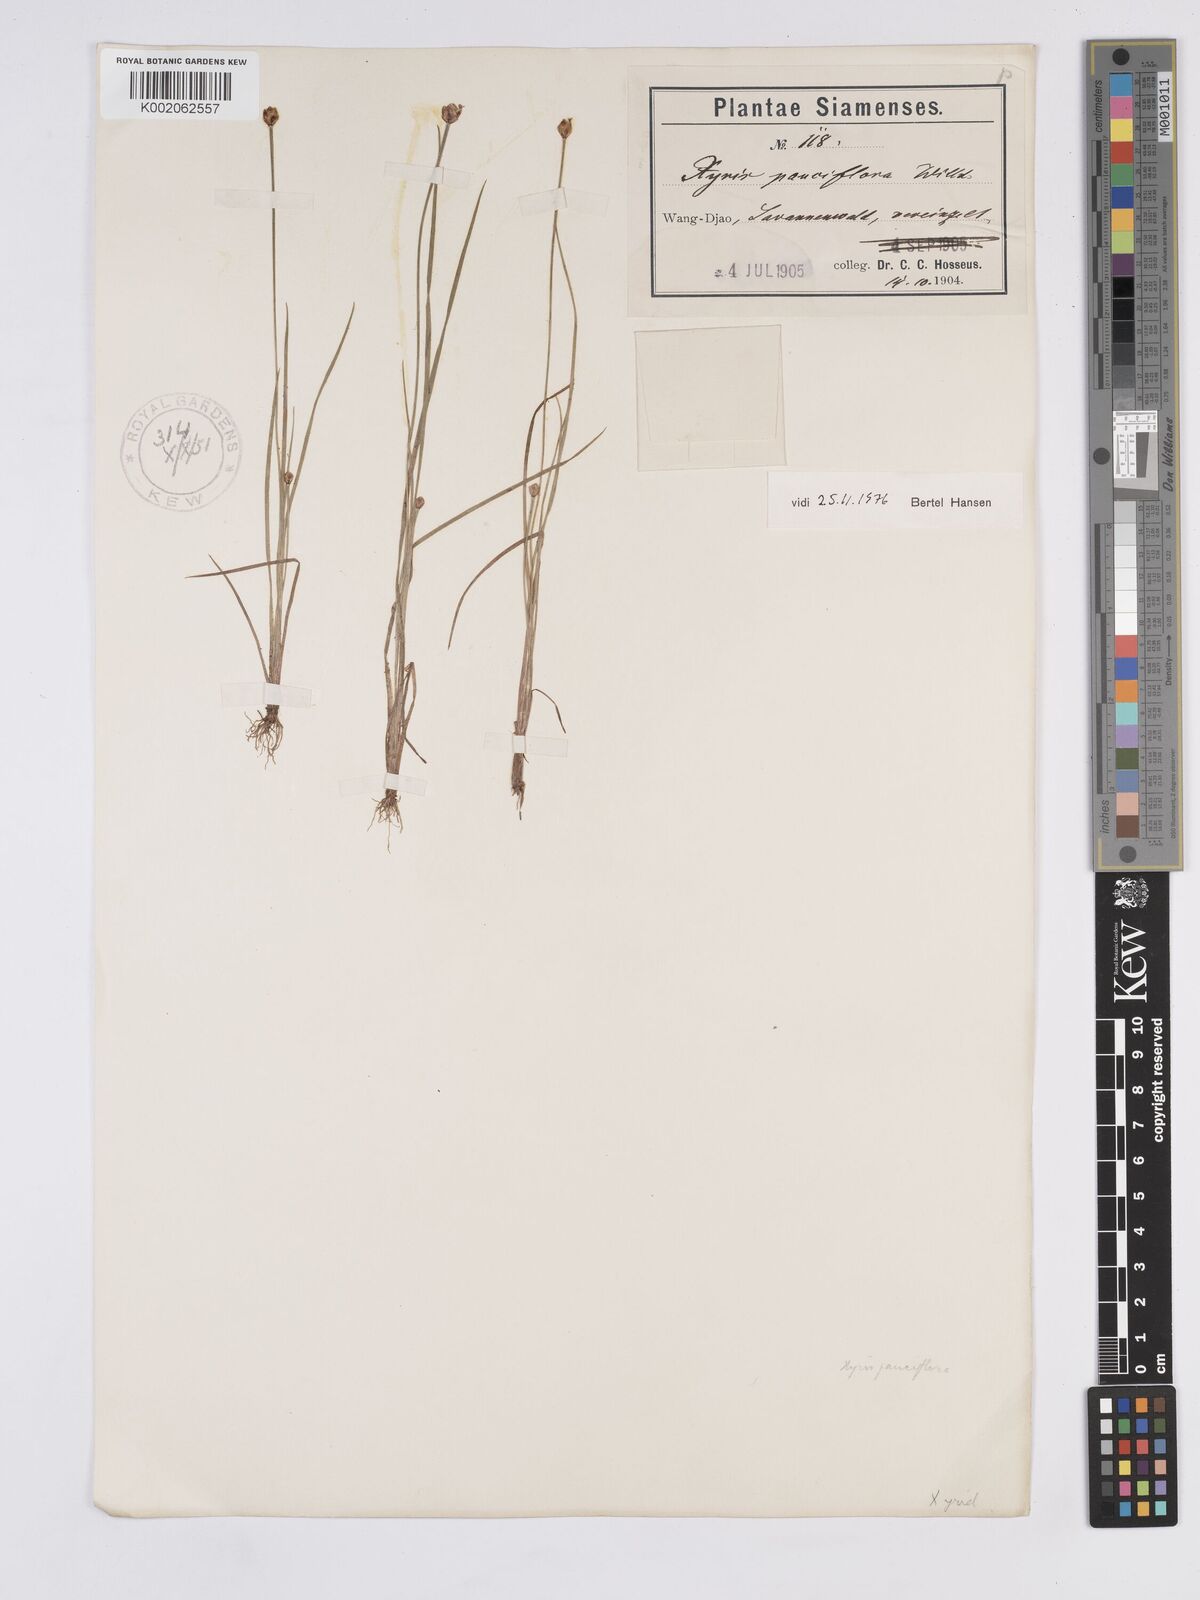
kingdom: Plantae
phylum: Tracheophyta
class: Liliopsida
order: Poales
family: Xyridaceae
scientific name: Xyridaceae
